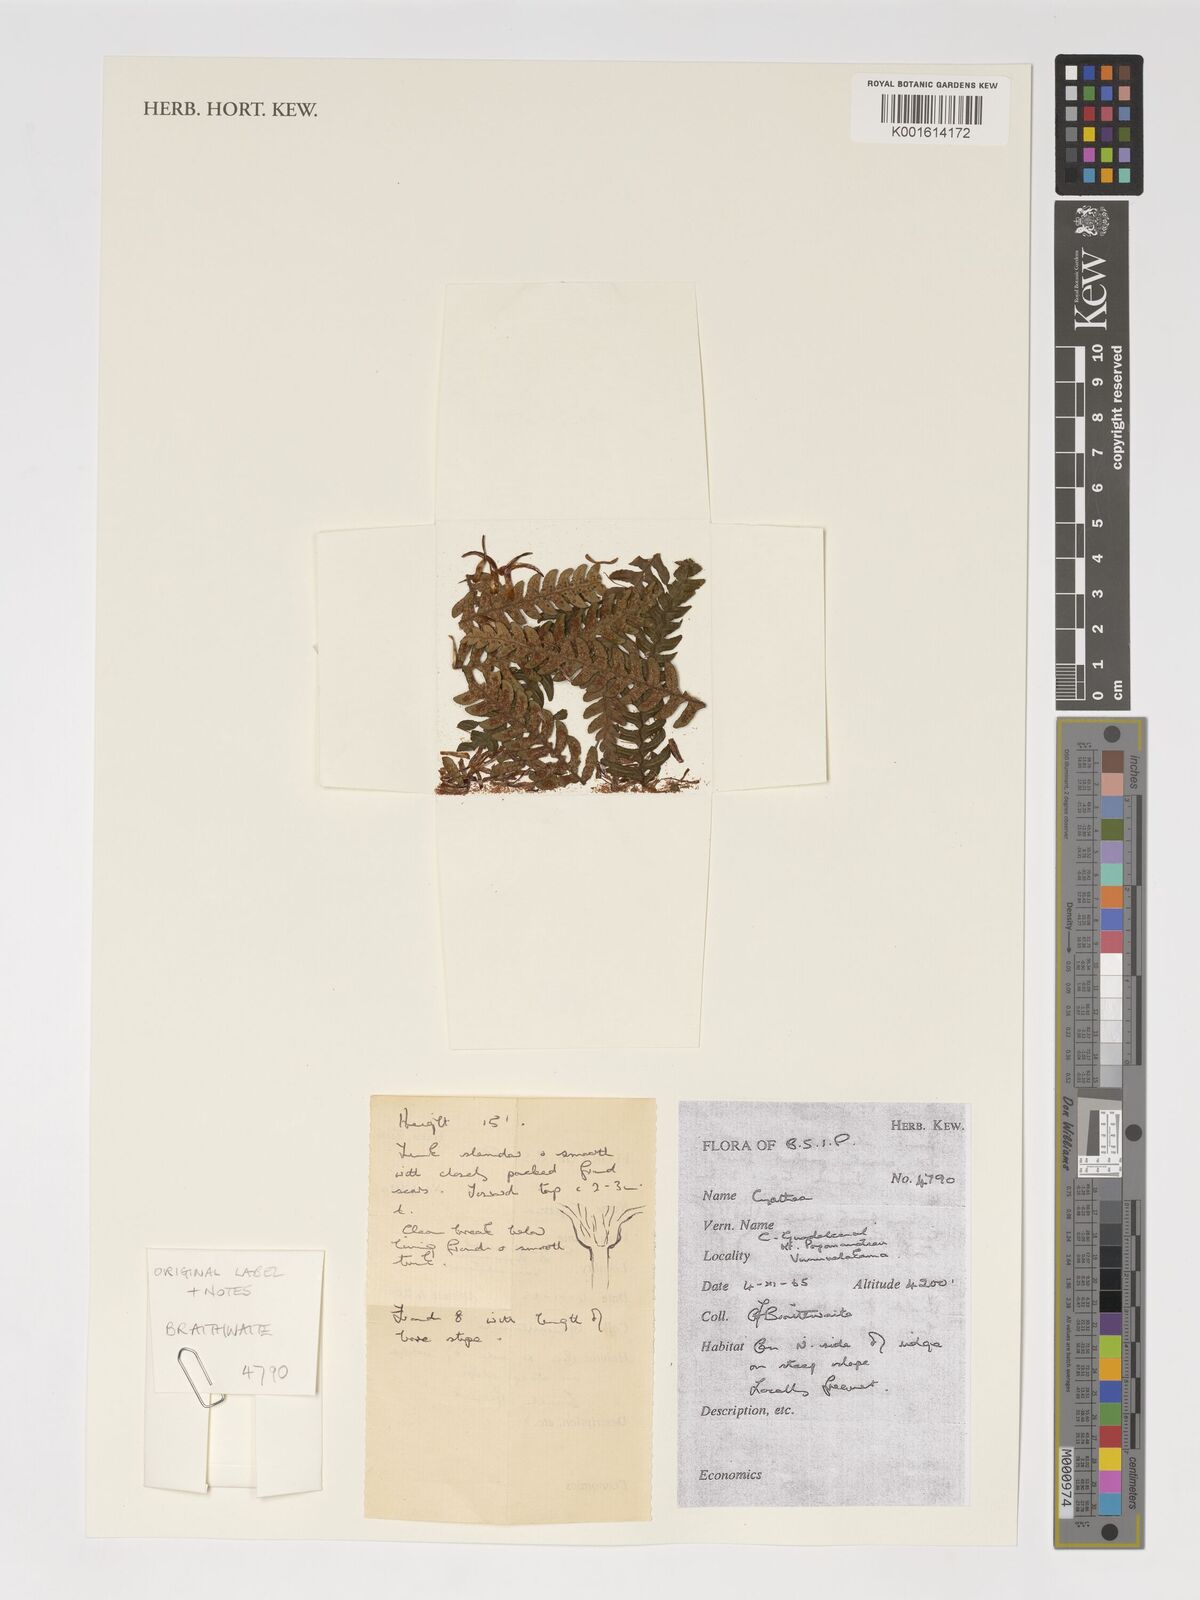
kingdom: Plantae
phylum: Tracheophyta
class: Polypodiopsida
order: Cyatheales
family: Cyatheaceae
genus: Cyathea
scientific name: Cyathea
